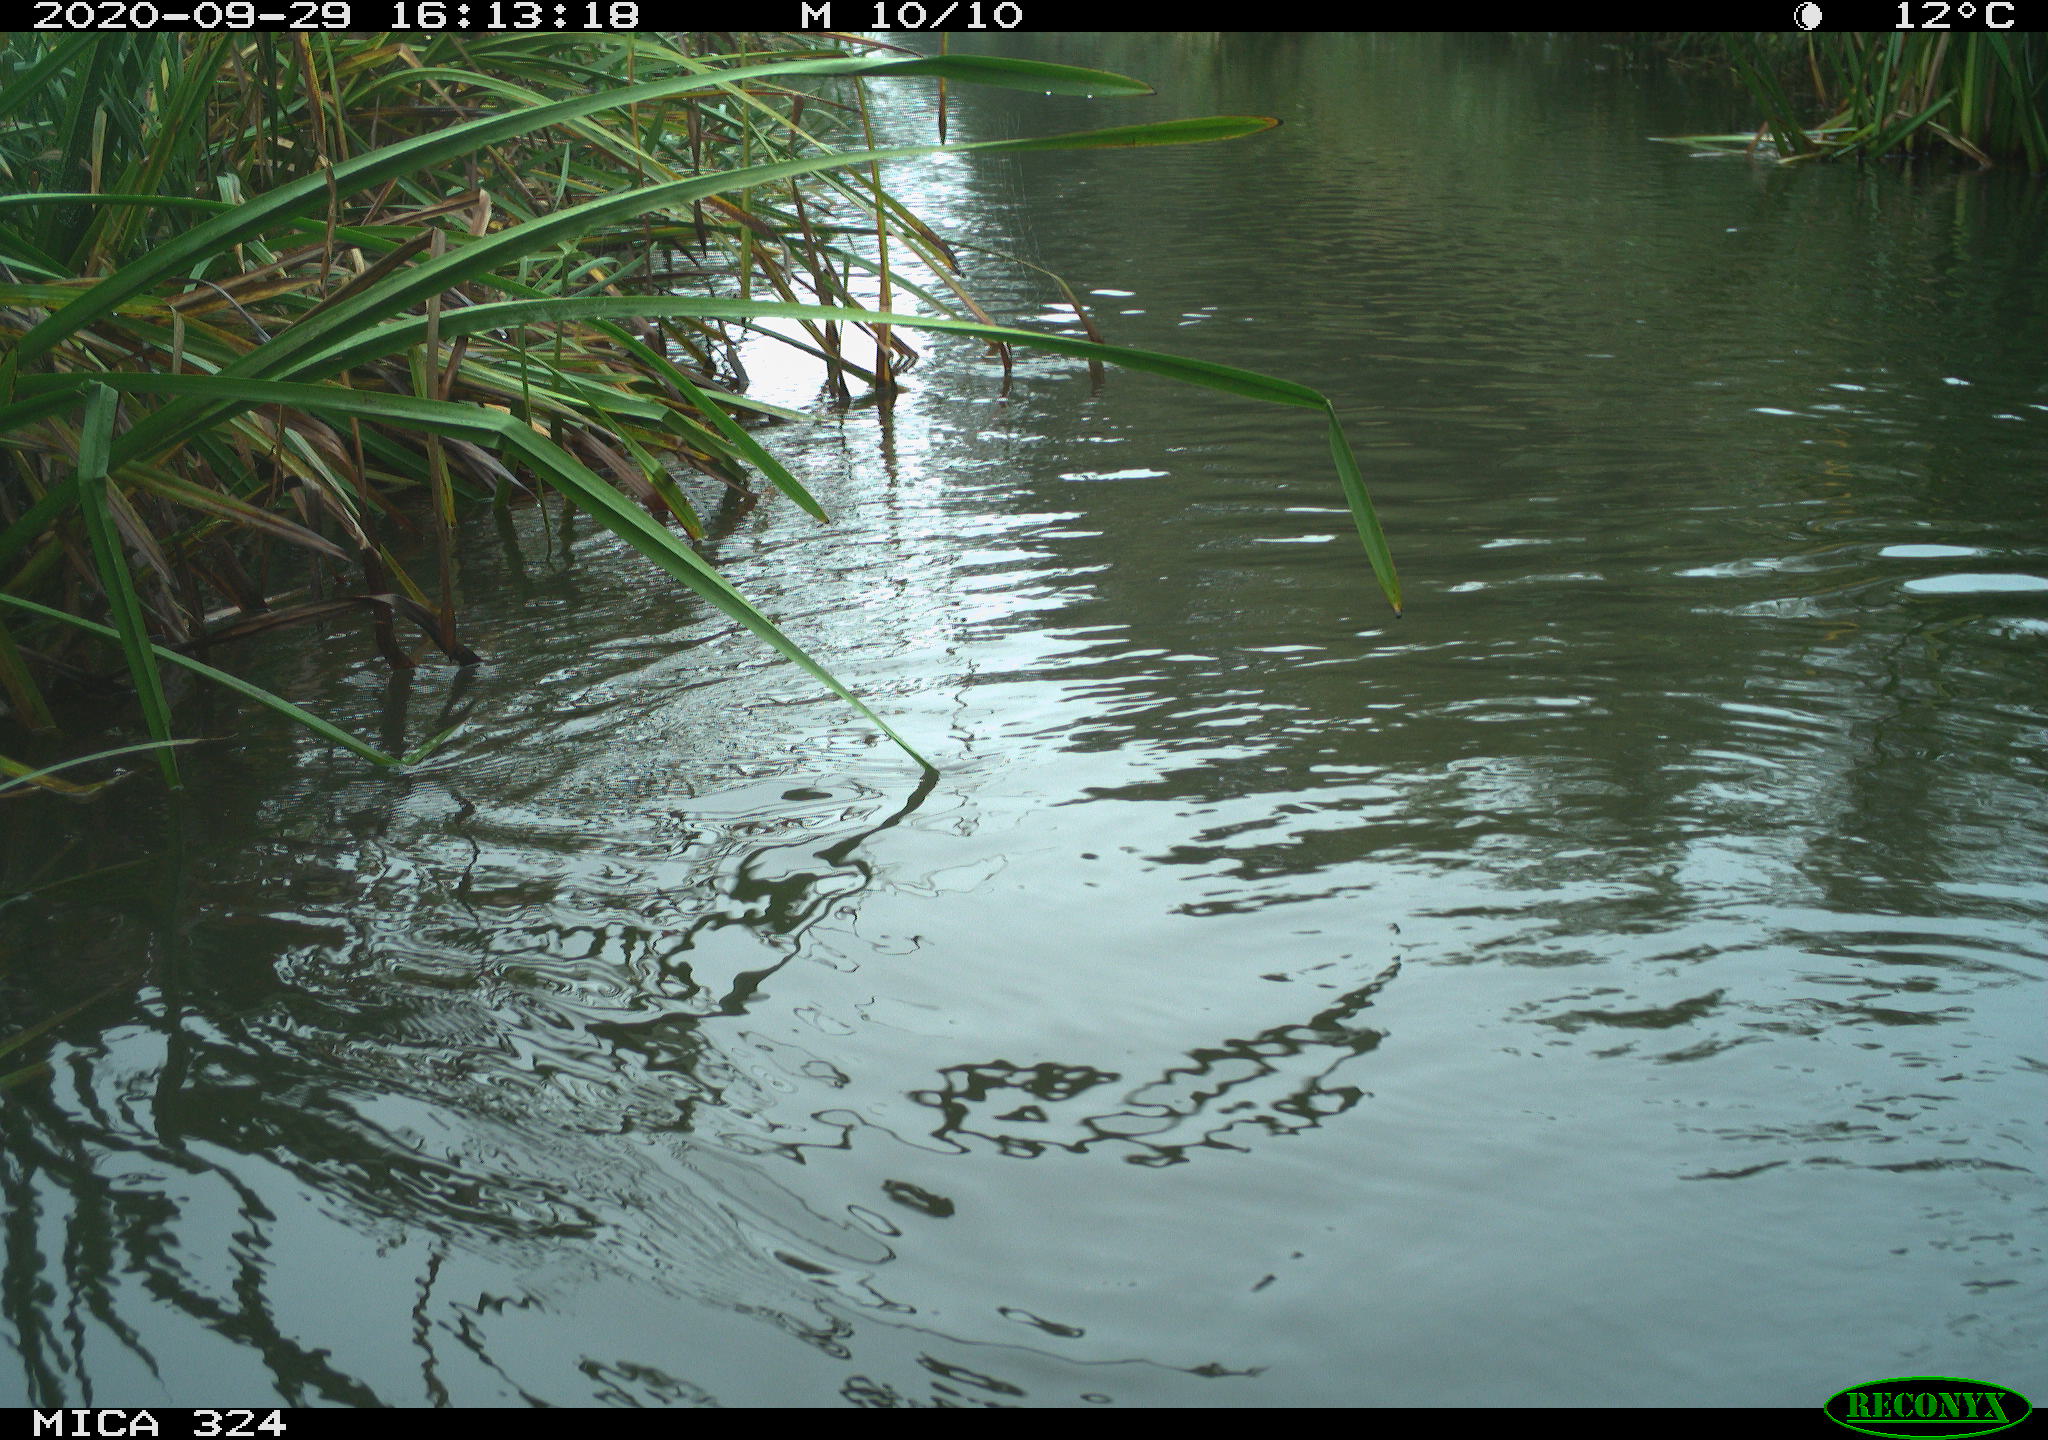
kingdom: Animalia
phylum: Chordata
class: Mammalia
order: Rodentia
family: Cricetidae
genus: Ondatra
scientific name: Ondatra zibethicus
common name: Muskrat
